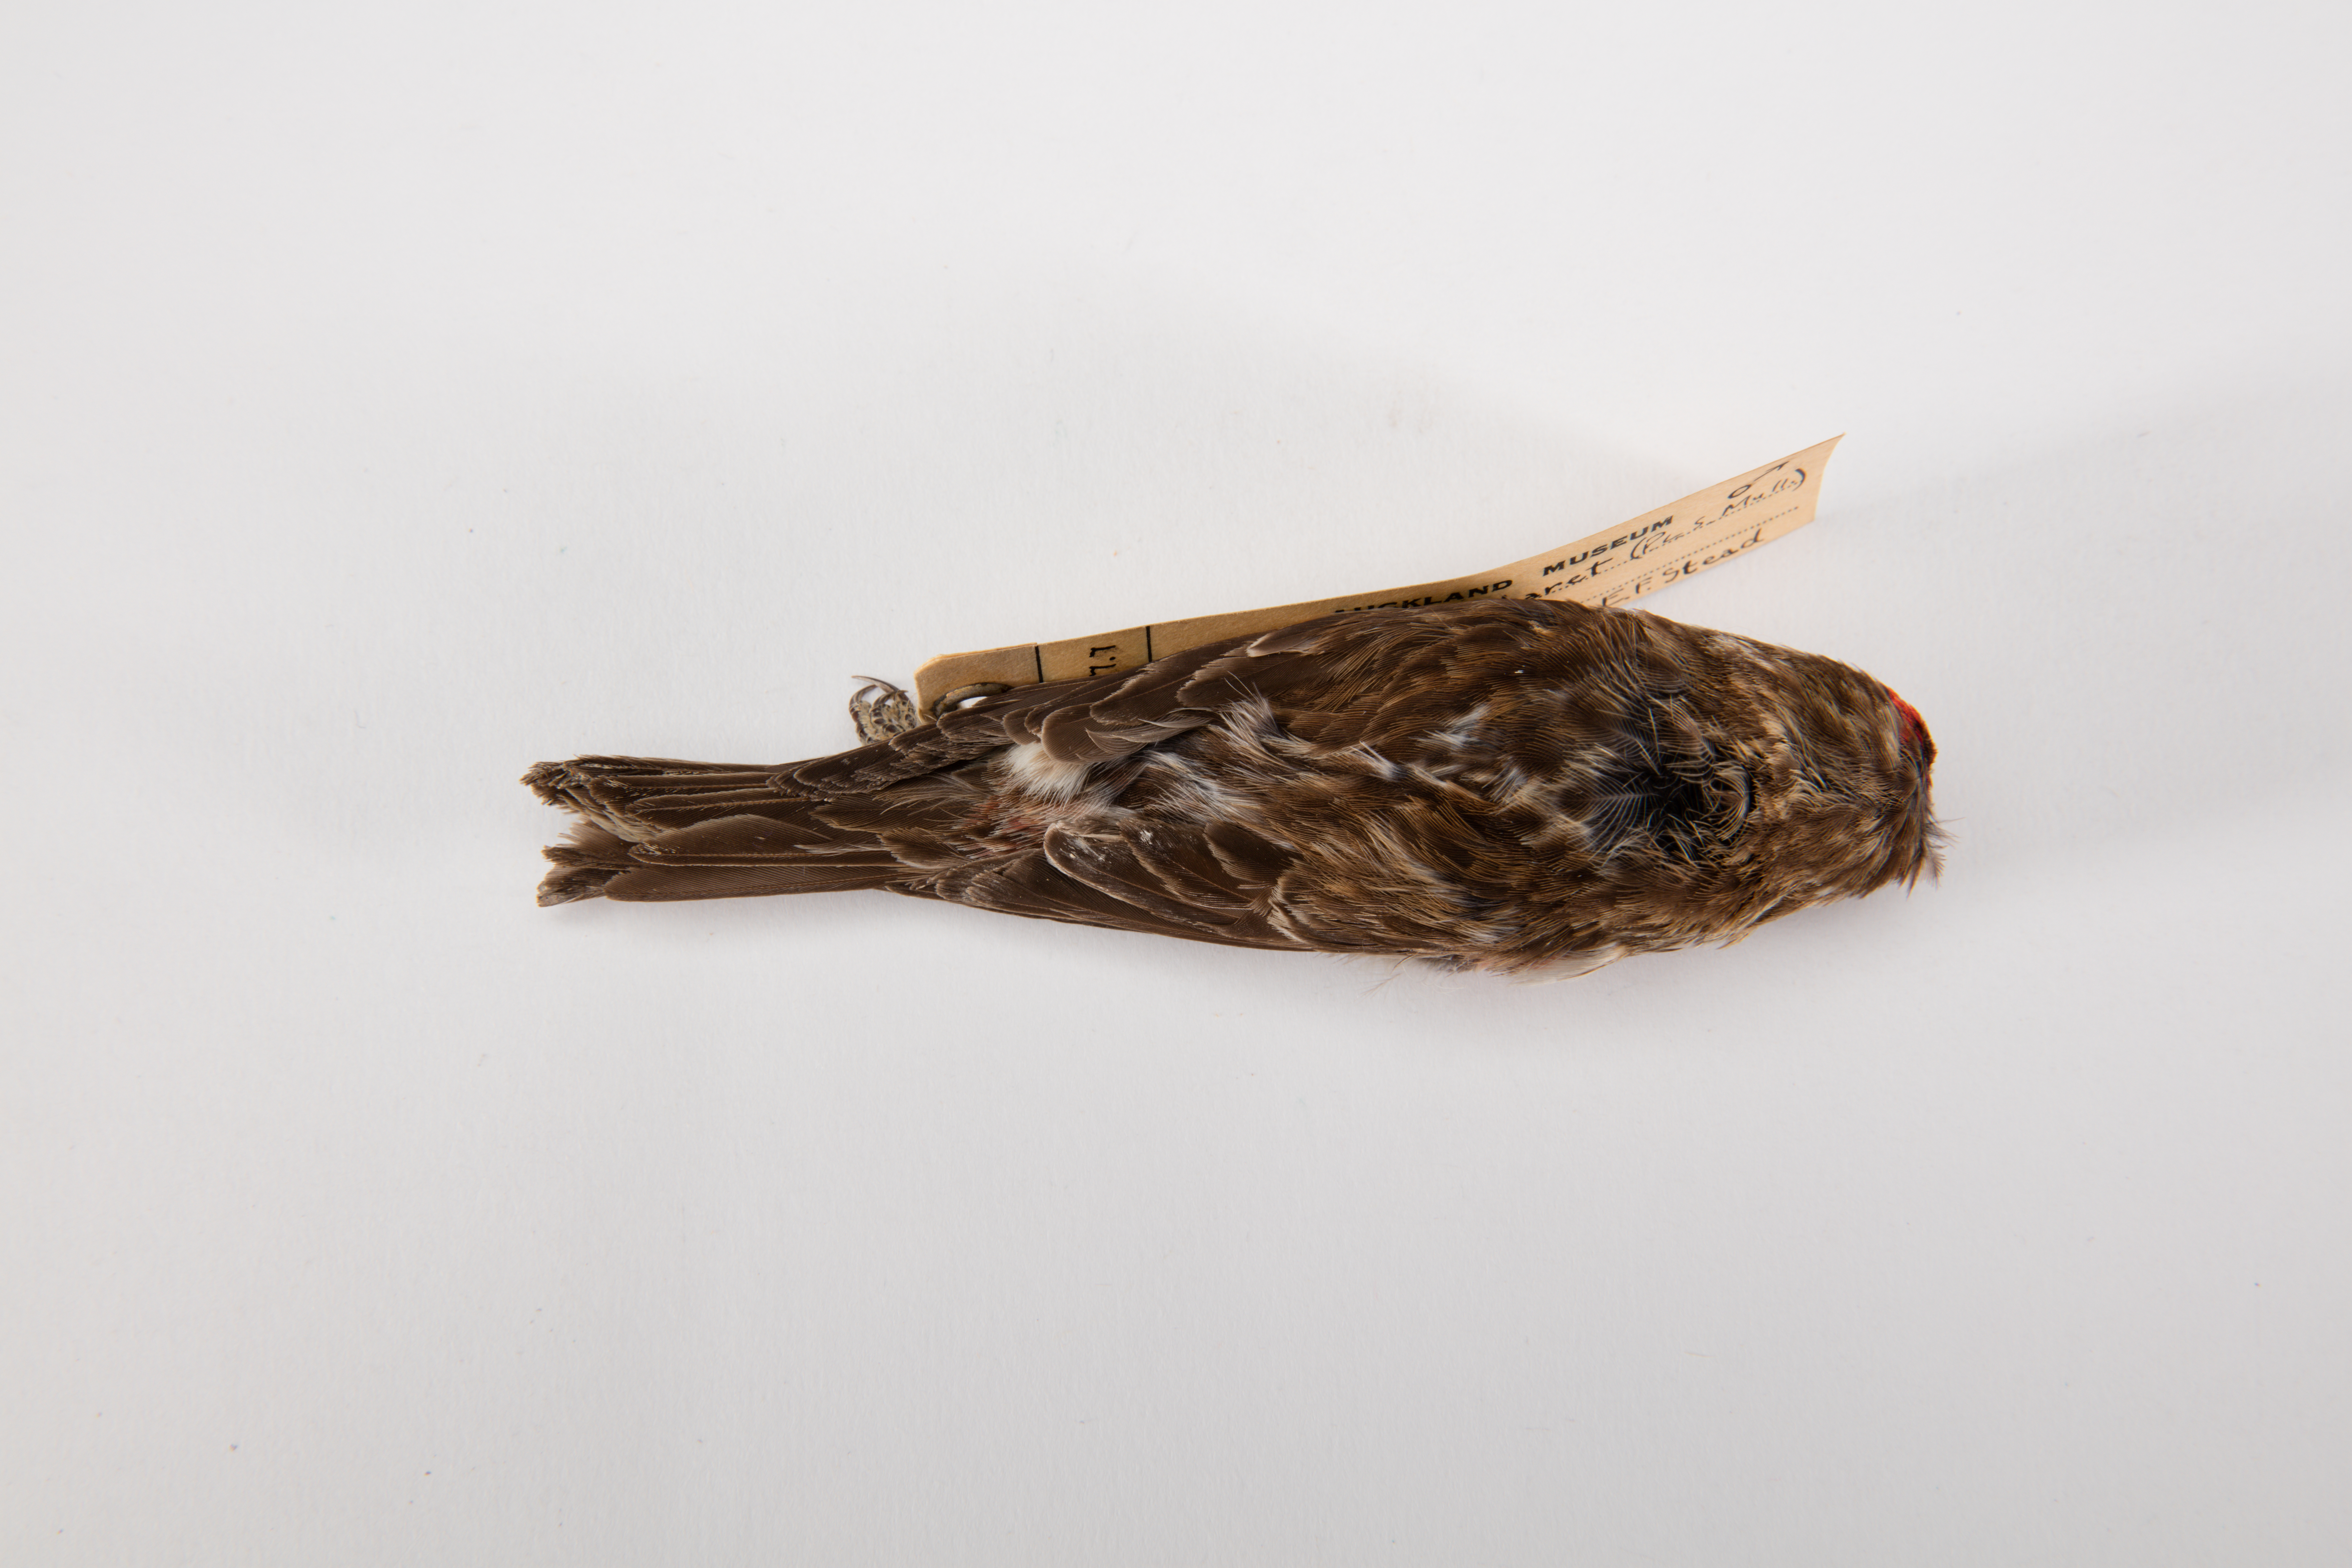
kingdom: Animalia
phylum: Chordata
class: Aves
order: Passeriformes
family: Fringillidae
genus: Acanthis
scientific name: Acanthis flammea
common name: Common redpoll
